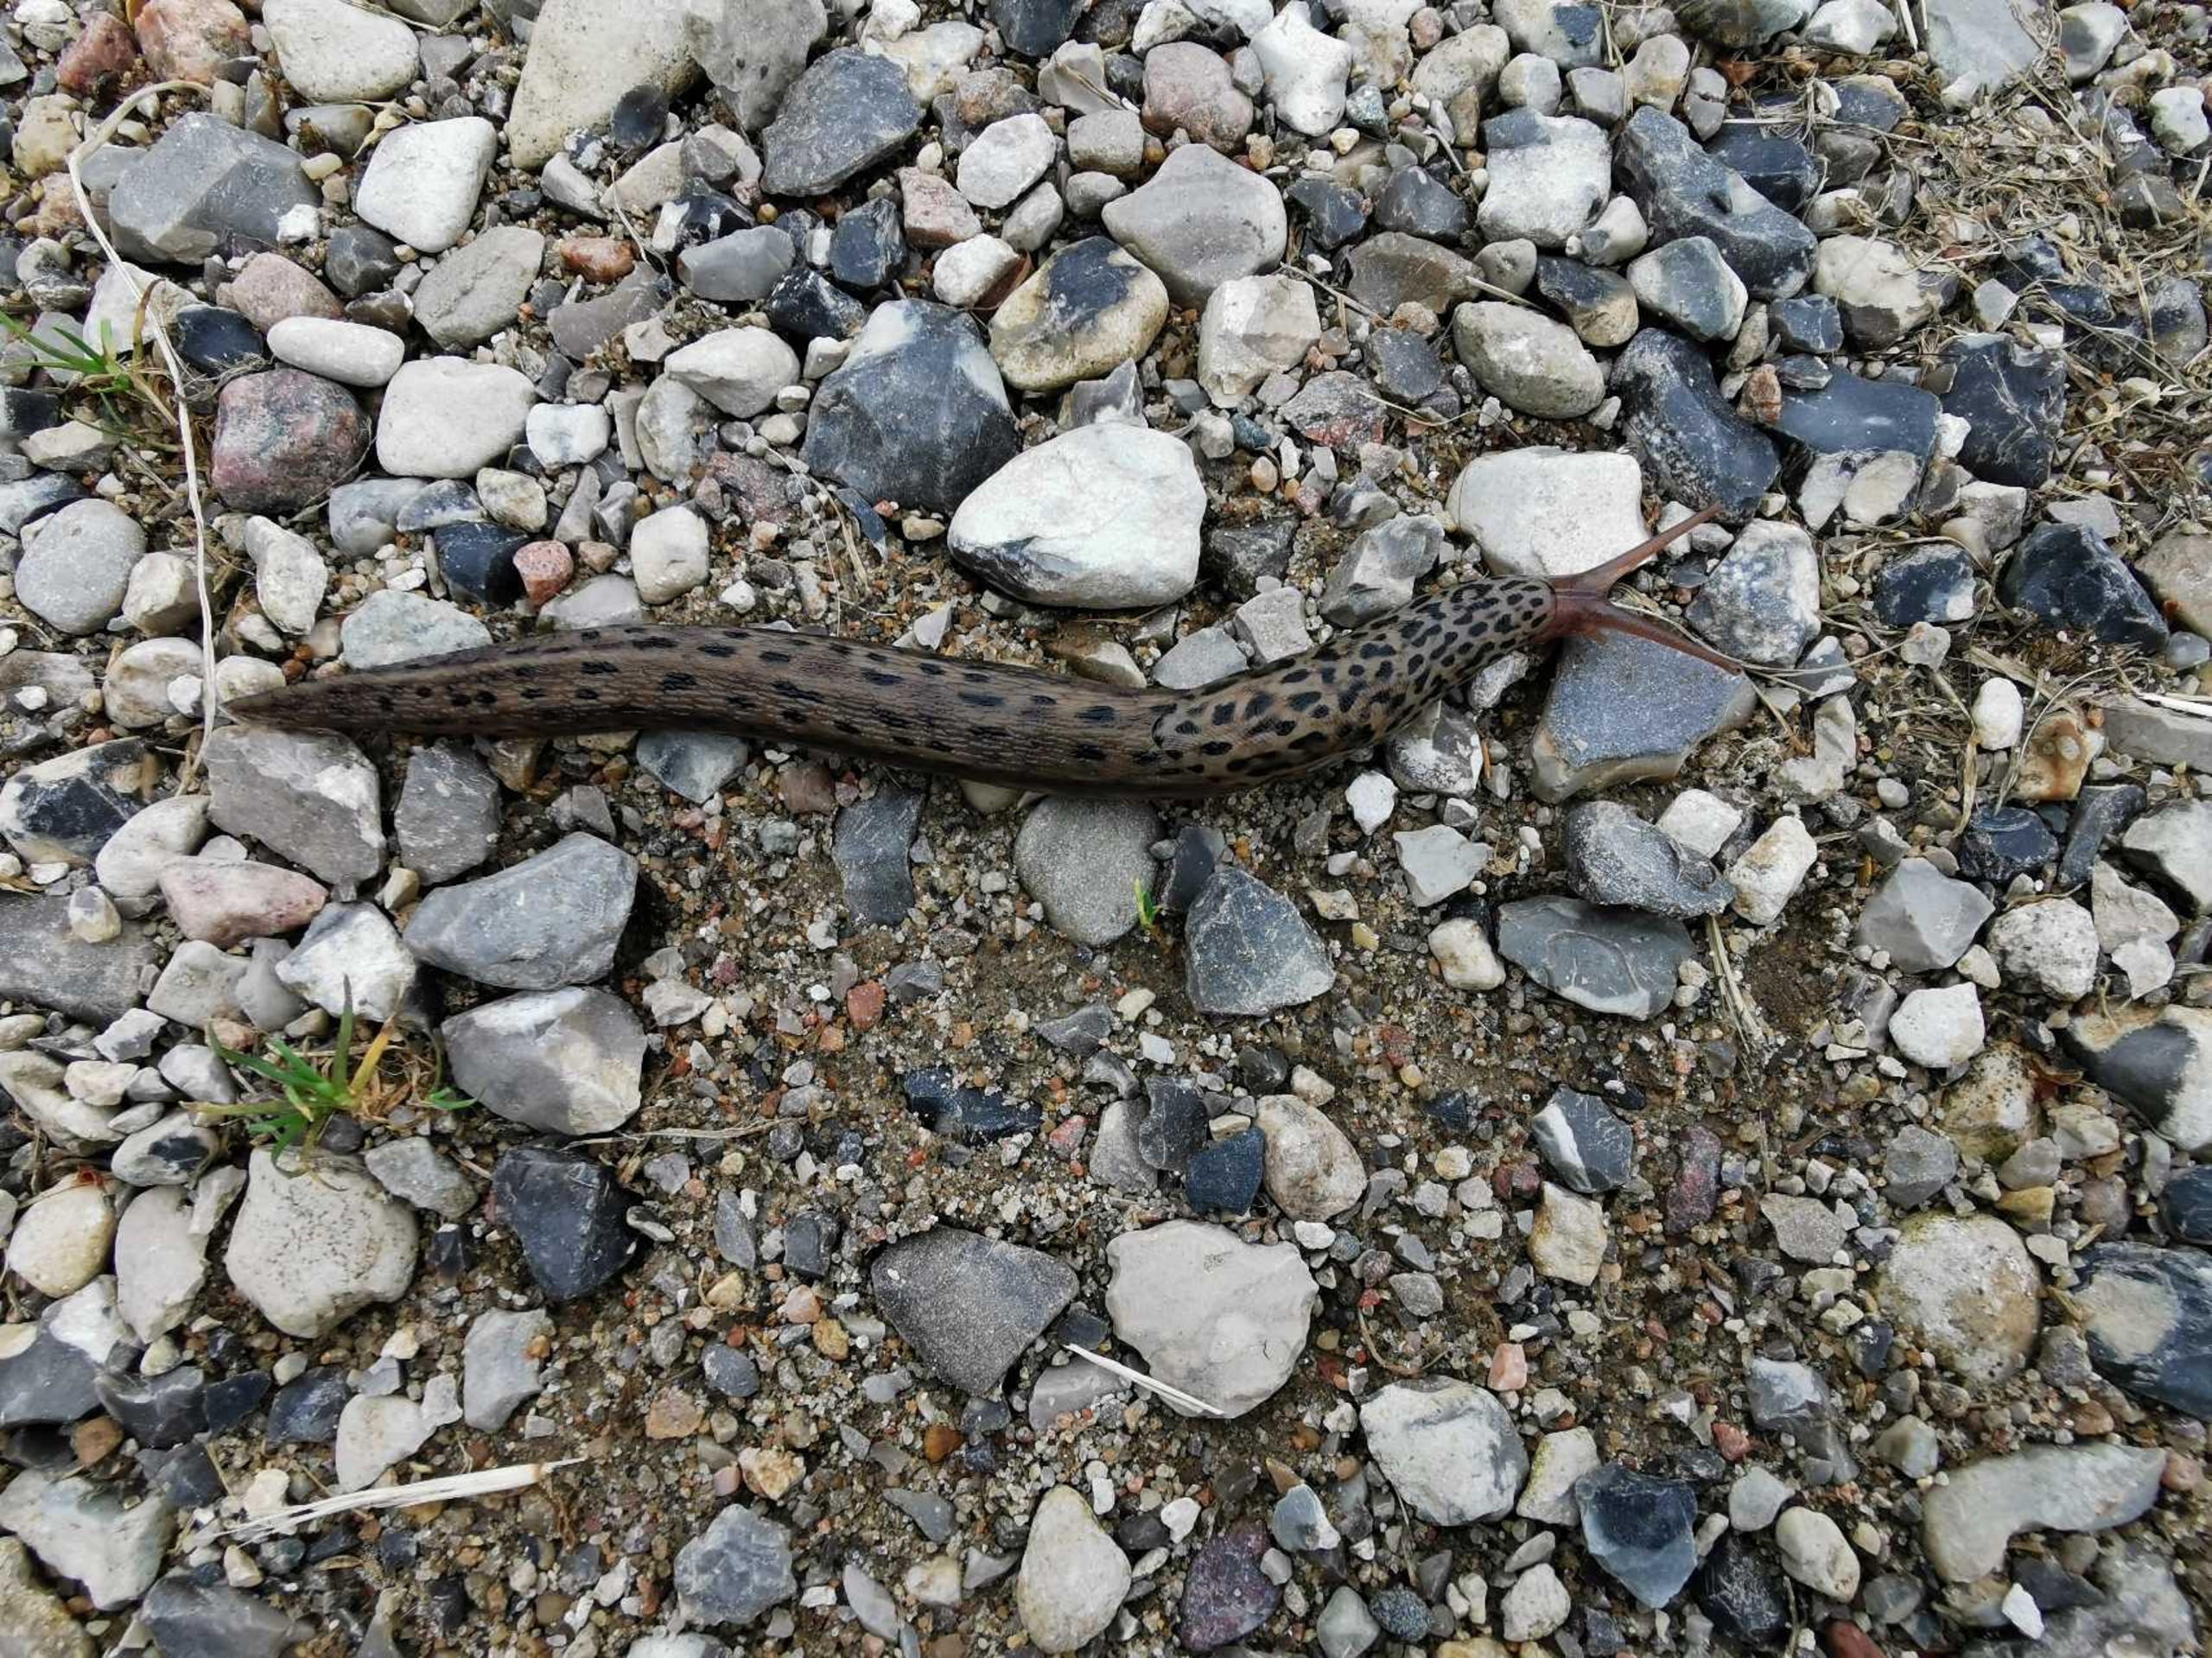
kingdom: Animalia
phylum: Mollusca
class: Gastropoda
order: Stylommatophora
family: Limacidae
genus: Limax
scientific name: Limax maximus
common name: Pantersnegl
